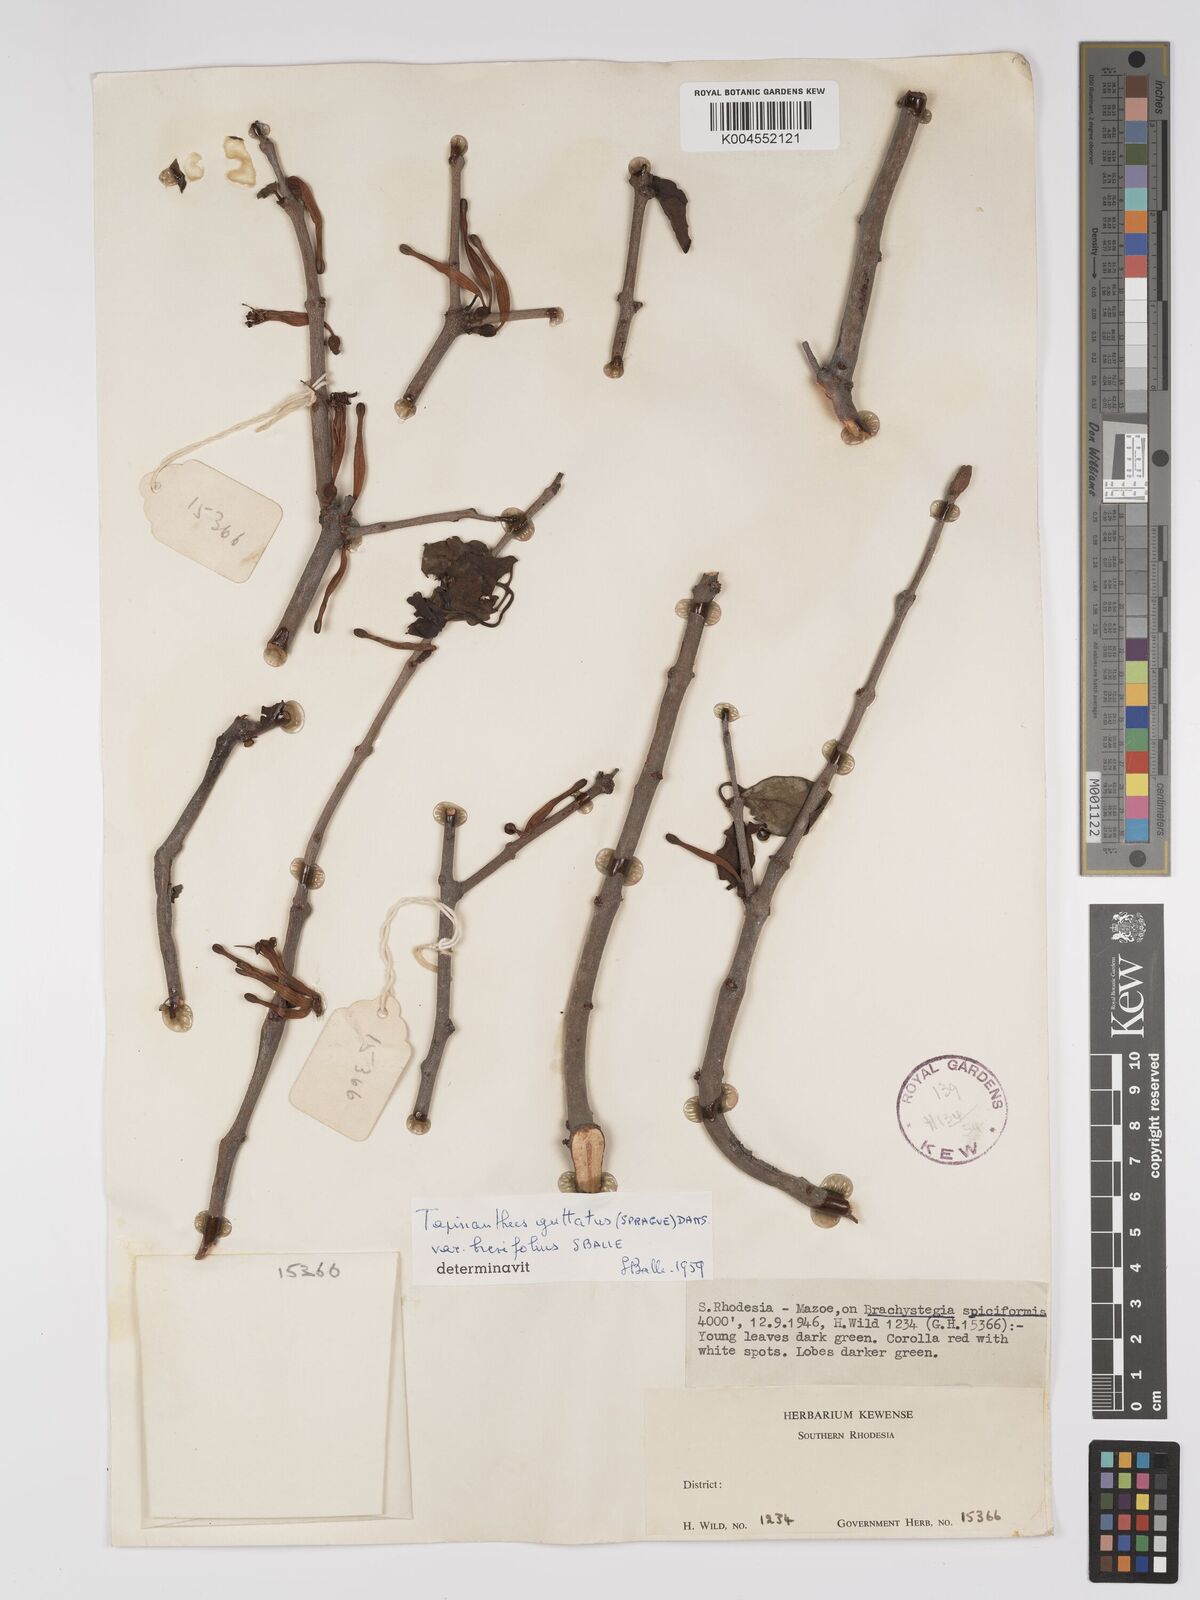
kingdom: Plantae
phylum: Tracheophyta
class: Magnoliopsida
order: Santalales
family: Loranthaceae
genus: Tapinanthus
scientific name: Tapinanthus forbesii
